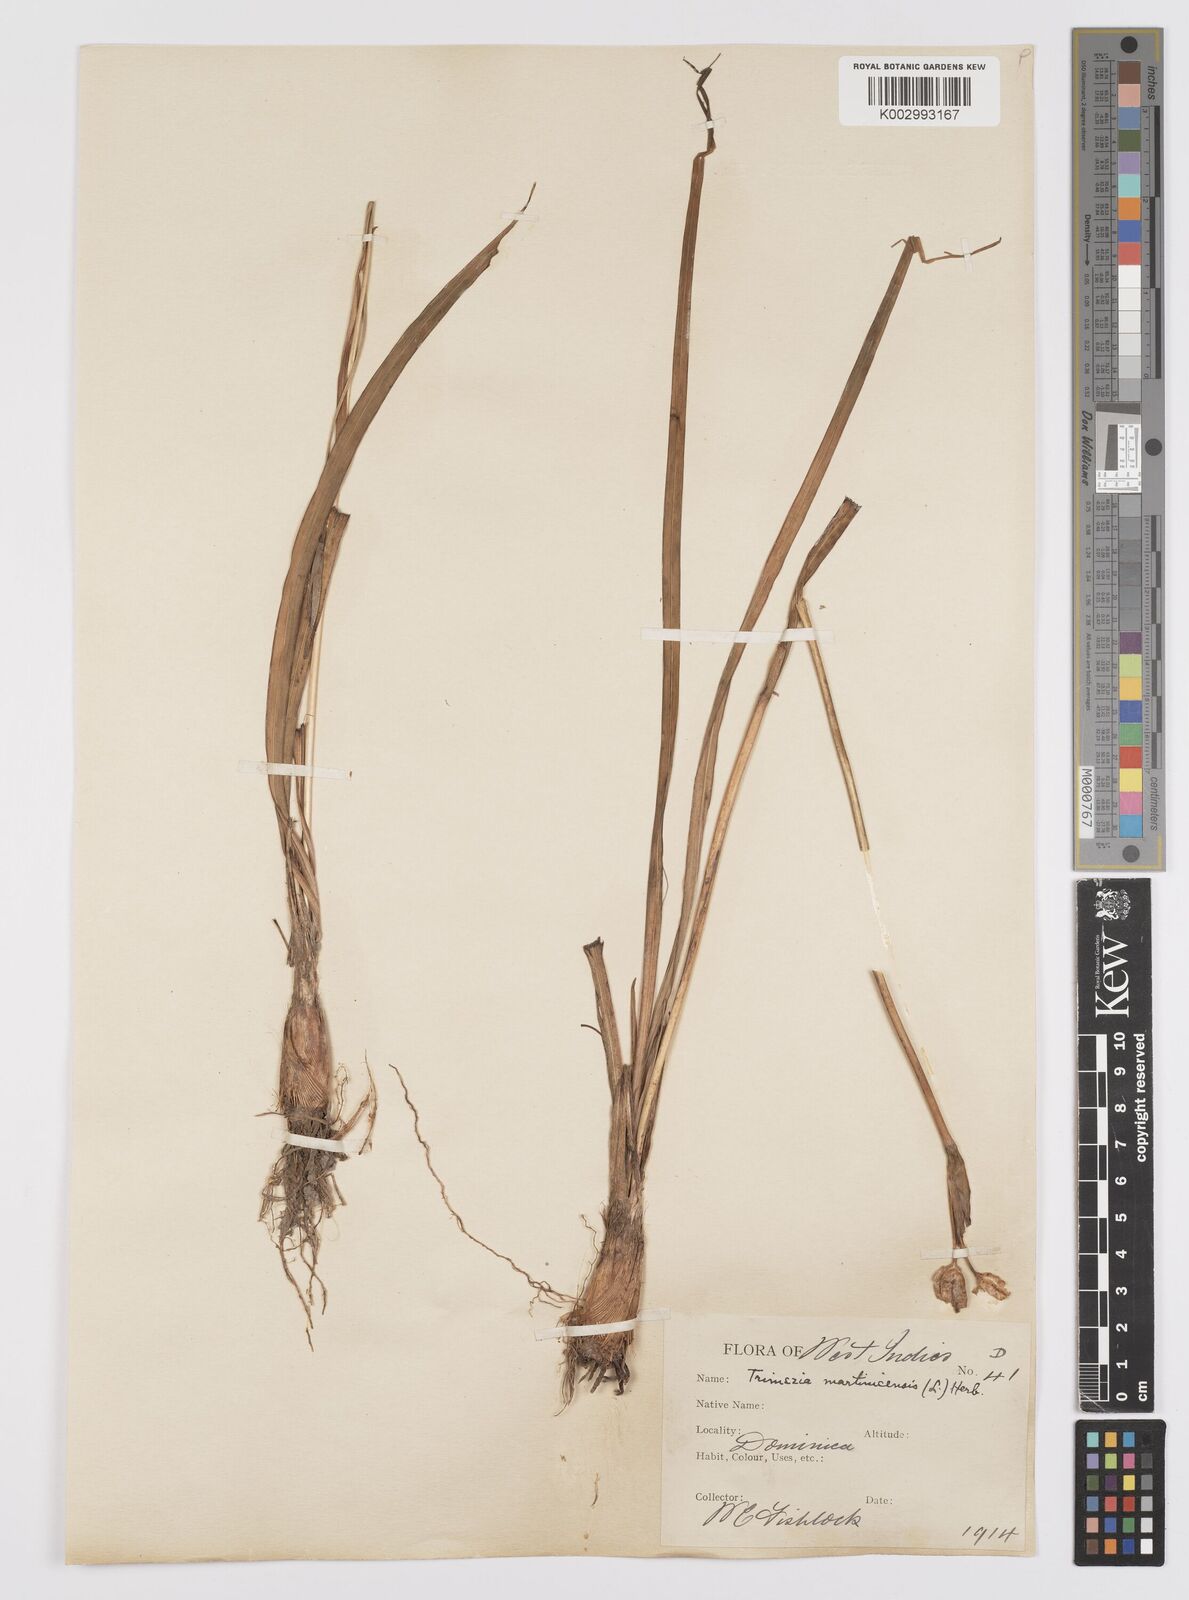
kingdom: Plantae
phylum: Tracheophyta
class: Liliopsida
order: Asparagales
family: Iridaceae
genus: Trimezia
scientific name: Trimezia martinicensis
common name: Martinique trimezia
